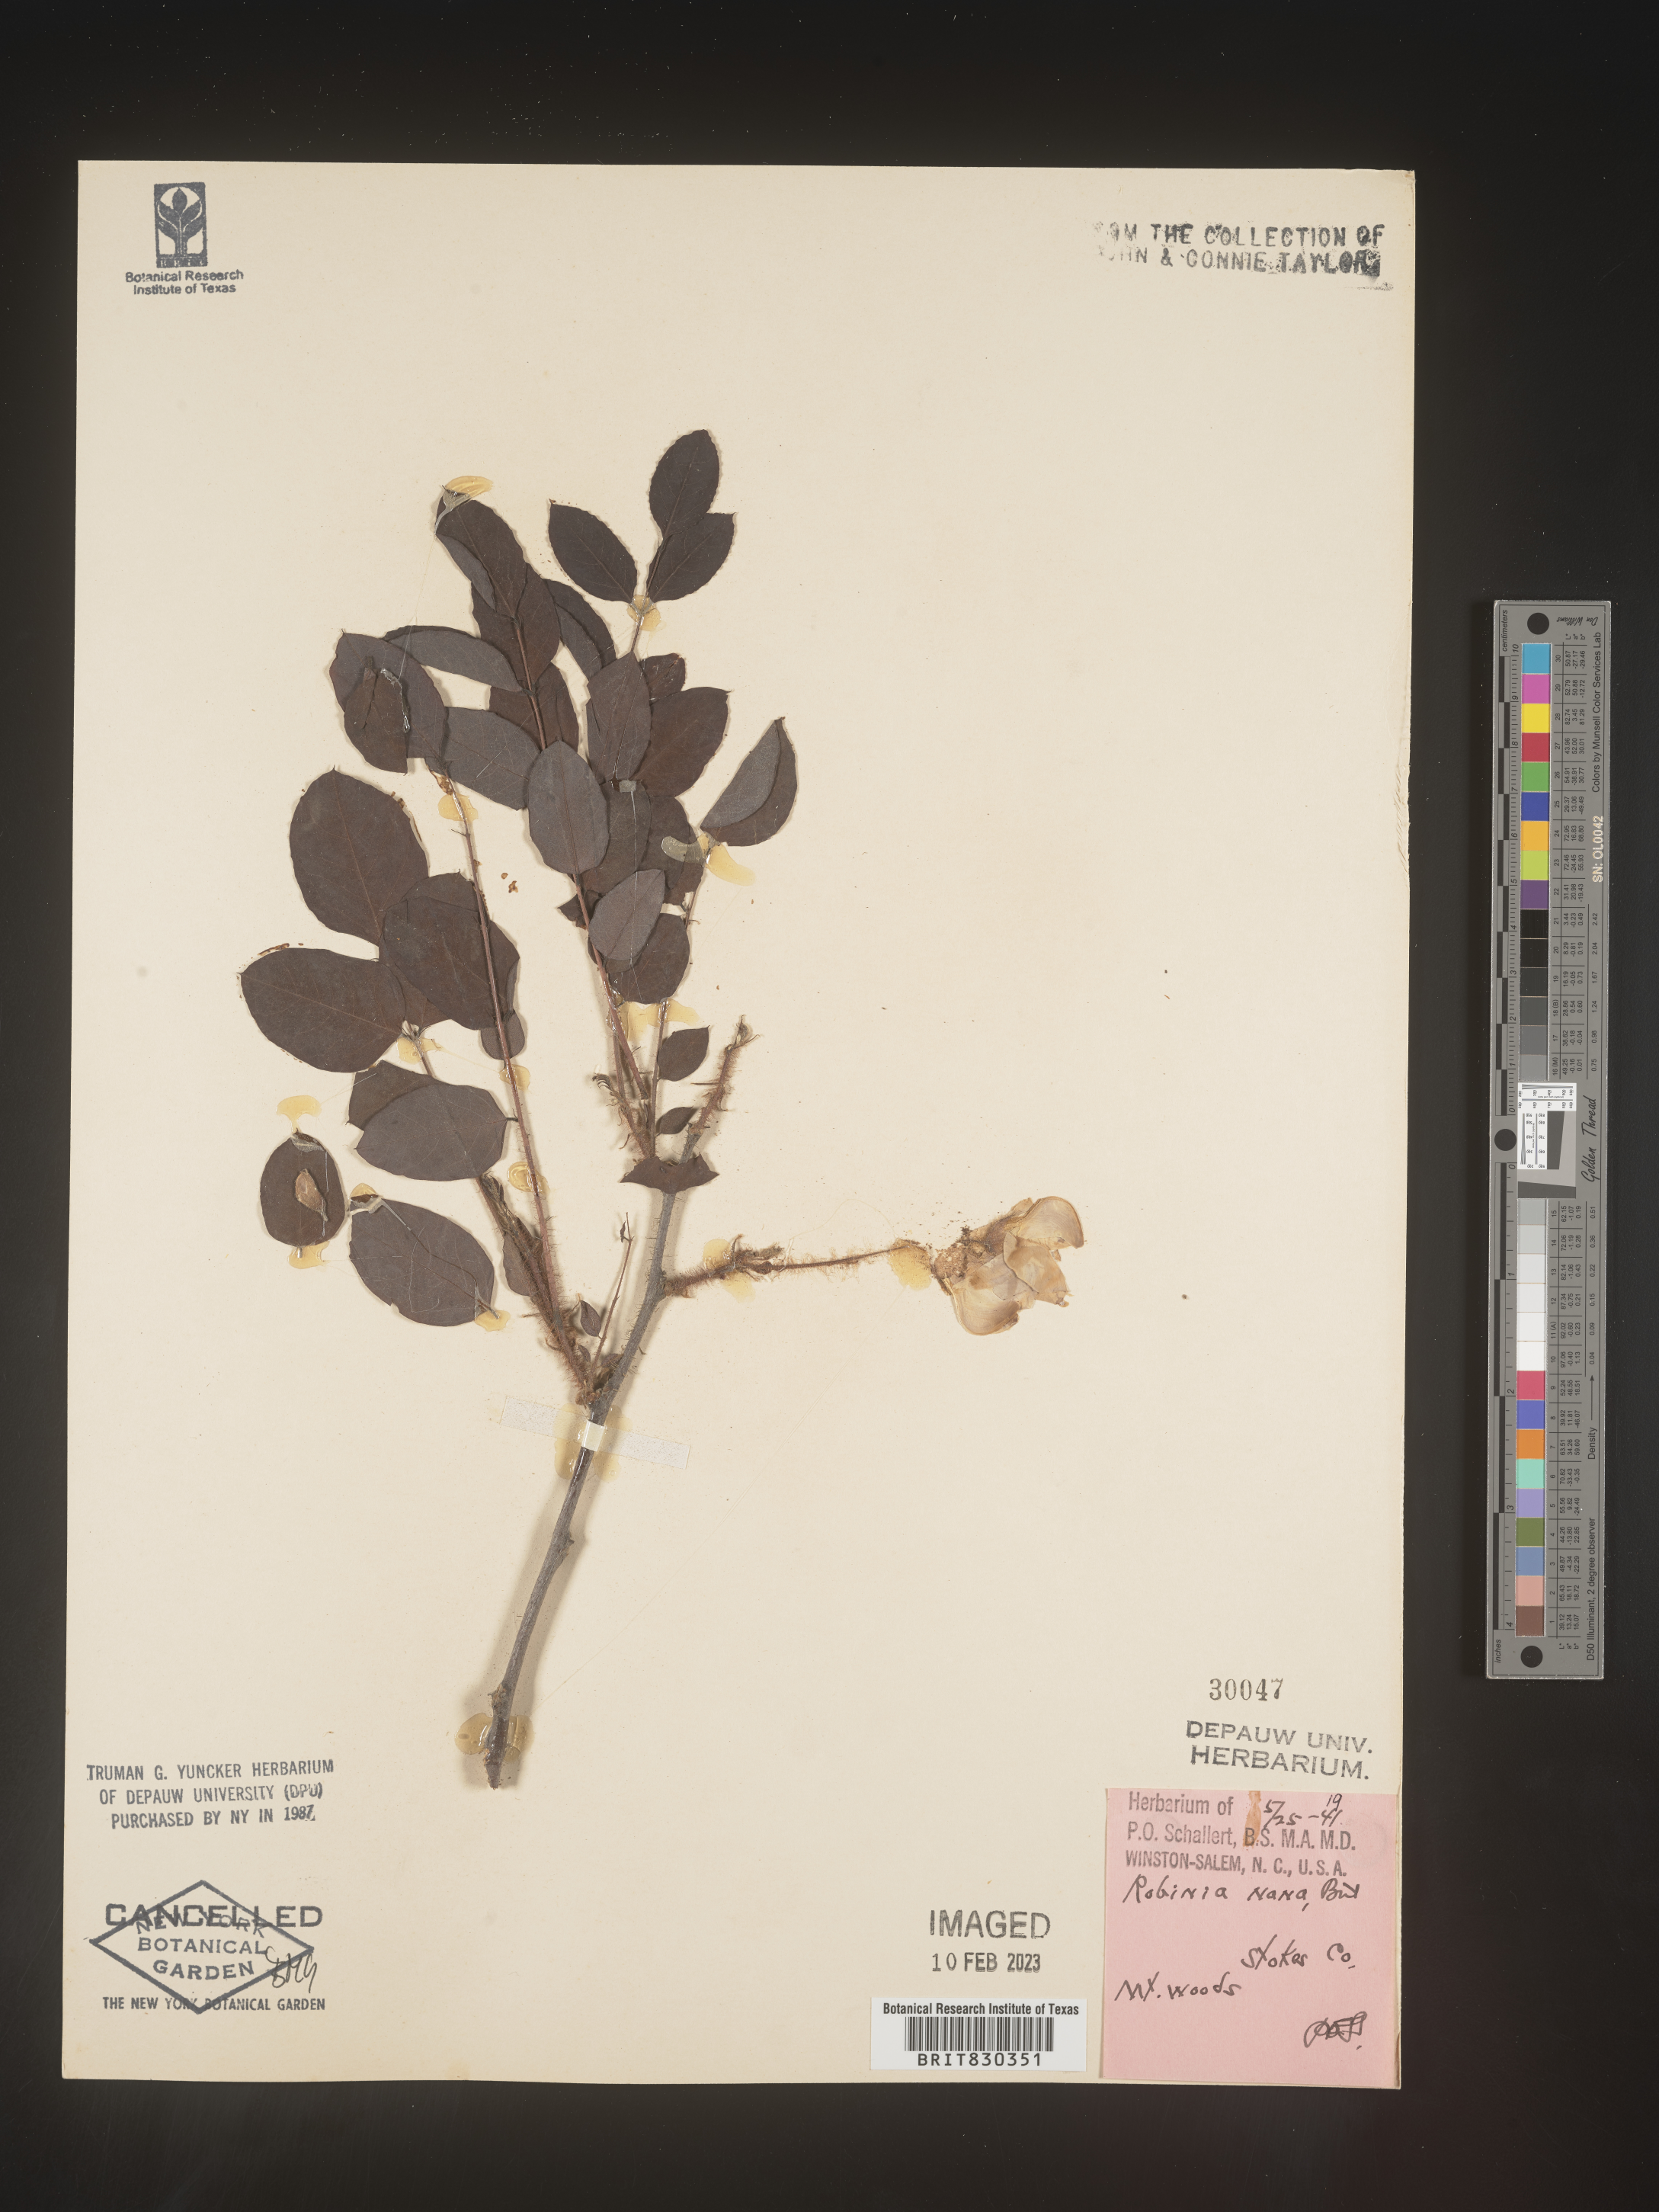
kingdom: Plantae
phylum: Tracheophyta
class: Magnoliopsida
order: Fabales
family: Fabaceae
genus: Robinia
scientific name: Robinia
